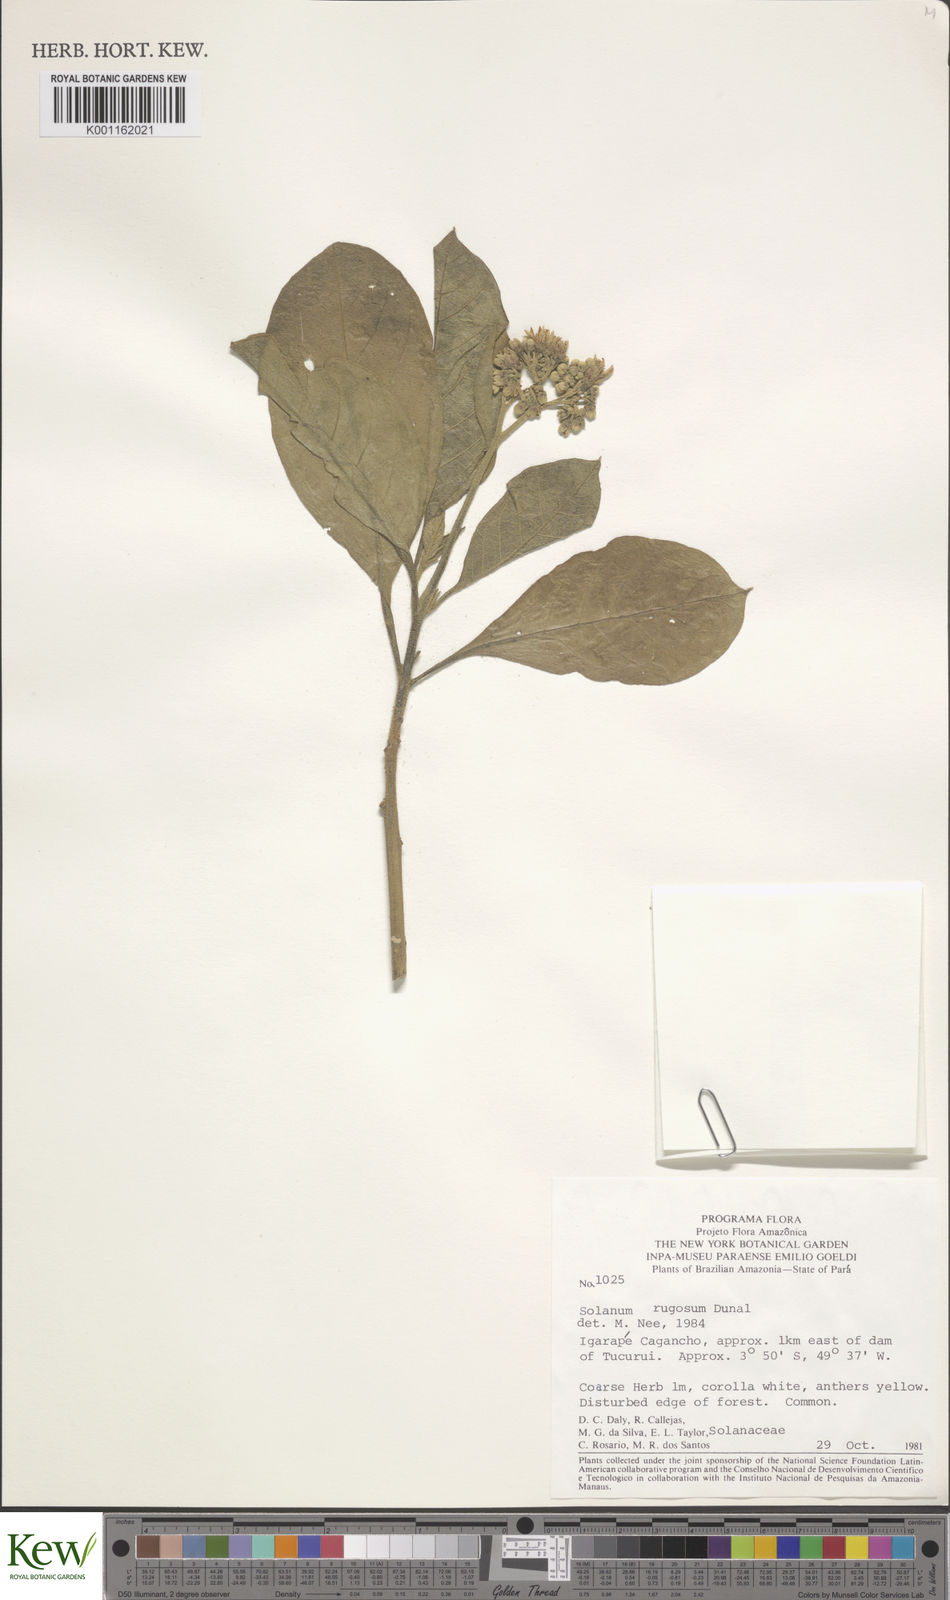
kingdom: Plantae
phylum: Tracheophyta
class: Magnoliopsida
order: Solanales
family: Solanaceae
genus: Solanum
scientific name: Solanum rugosum
